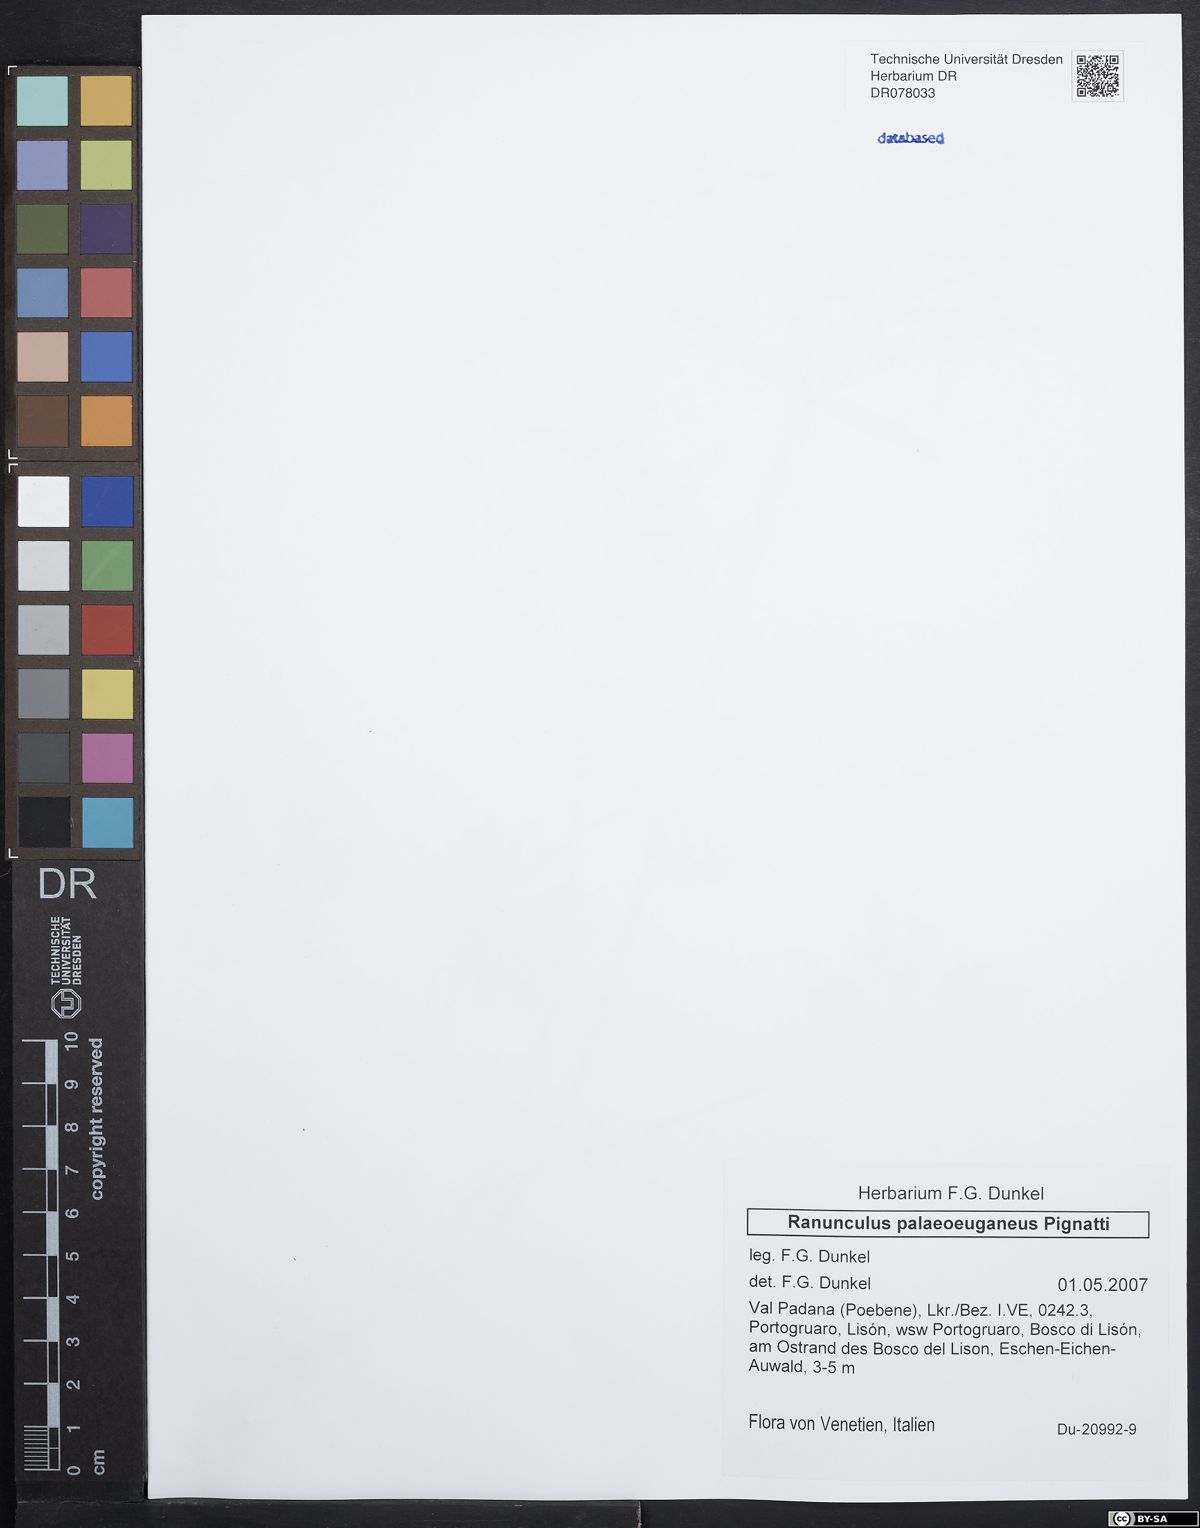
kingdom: Plantae
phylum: Tracheophyta
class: Magnoliopsida
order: Ranunculales
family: Ranunculaceae
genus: Ranunculus
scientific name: Ranunculus palaeoeuganeus
